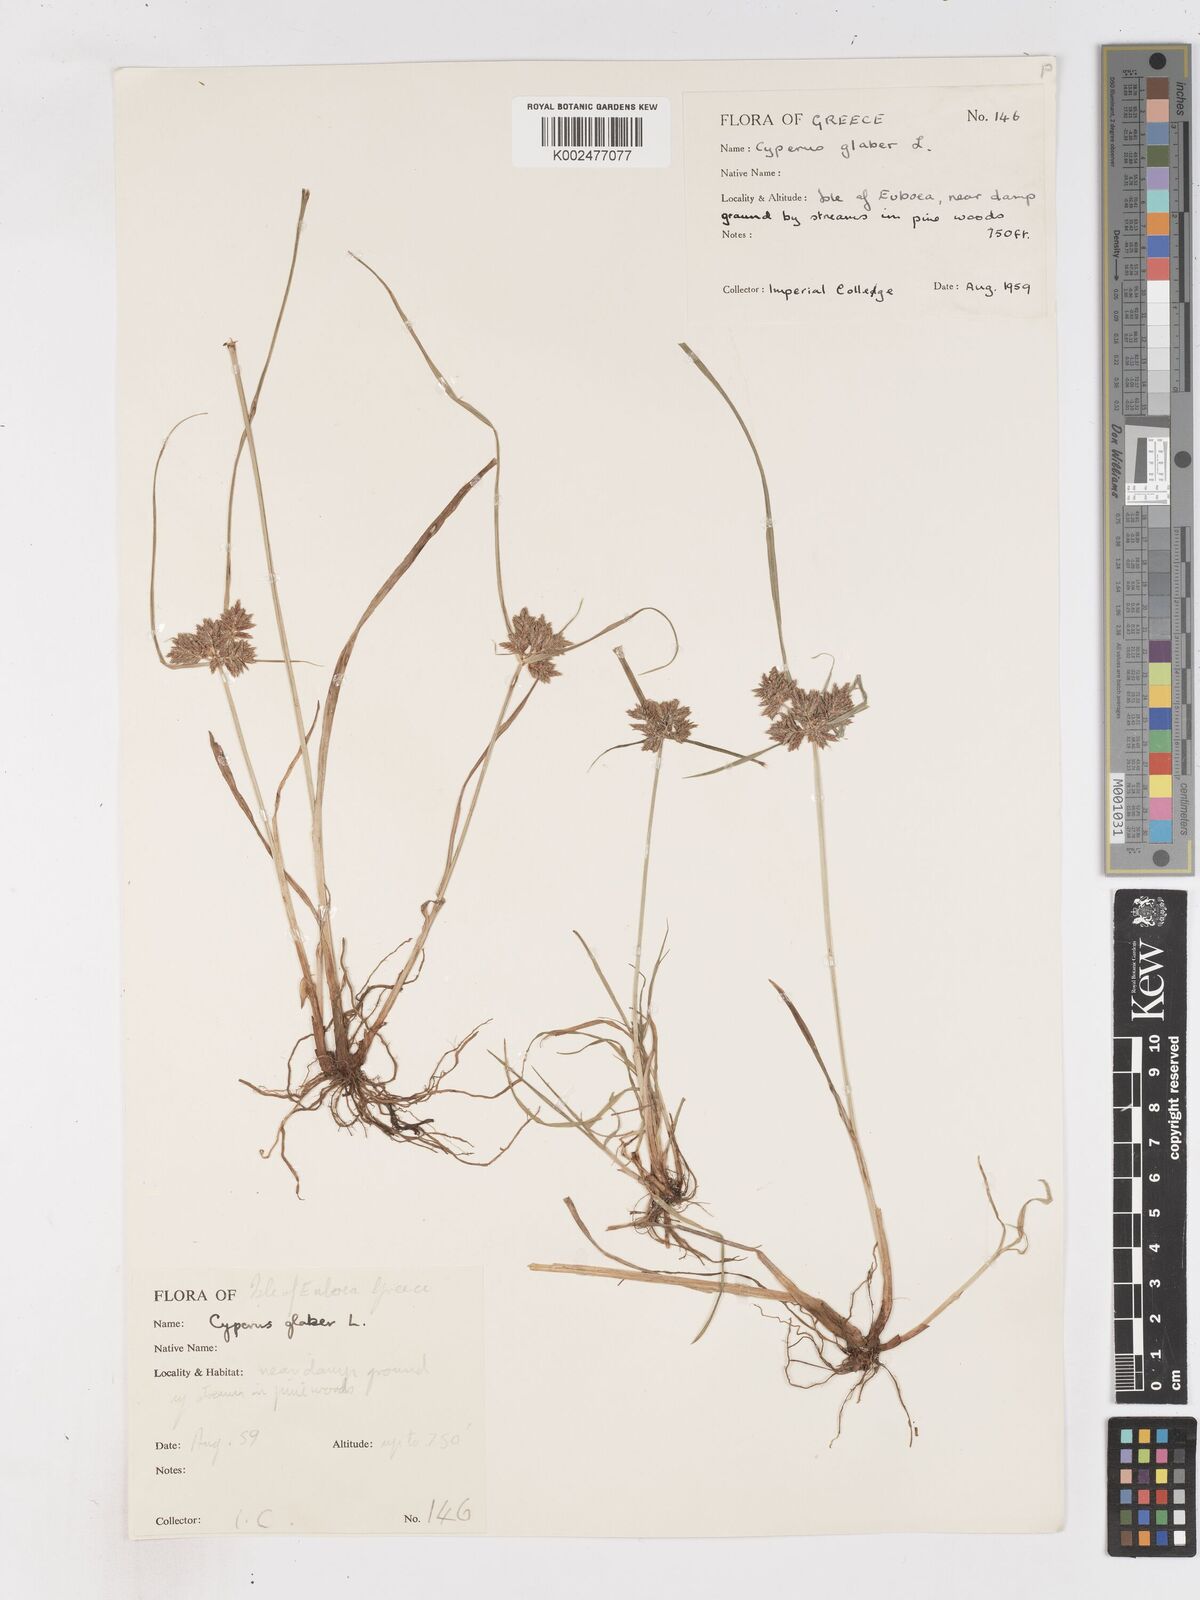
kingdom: Plantae
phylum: Tracheophyta
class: Liliopsida
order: Poales
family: Cyperaceae
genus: Cyperus
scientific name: Cyperus glaber
